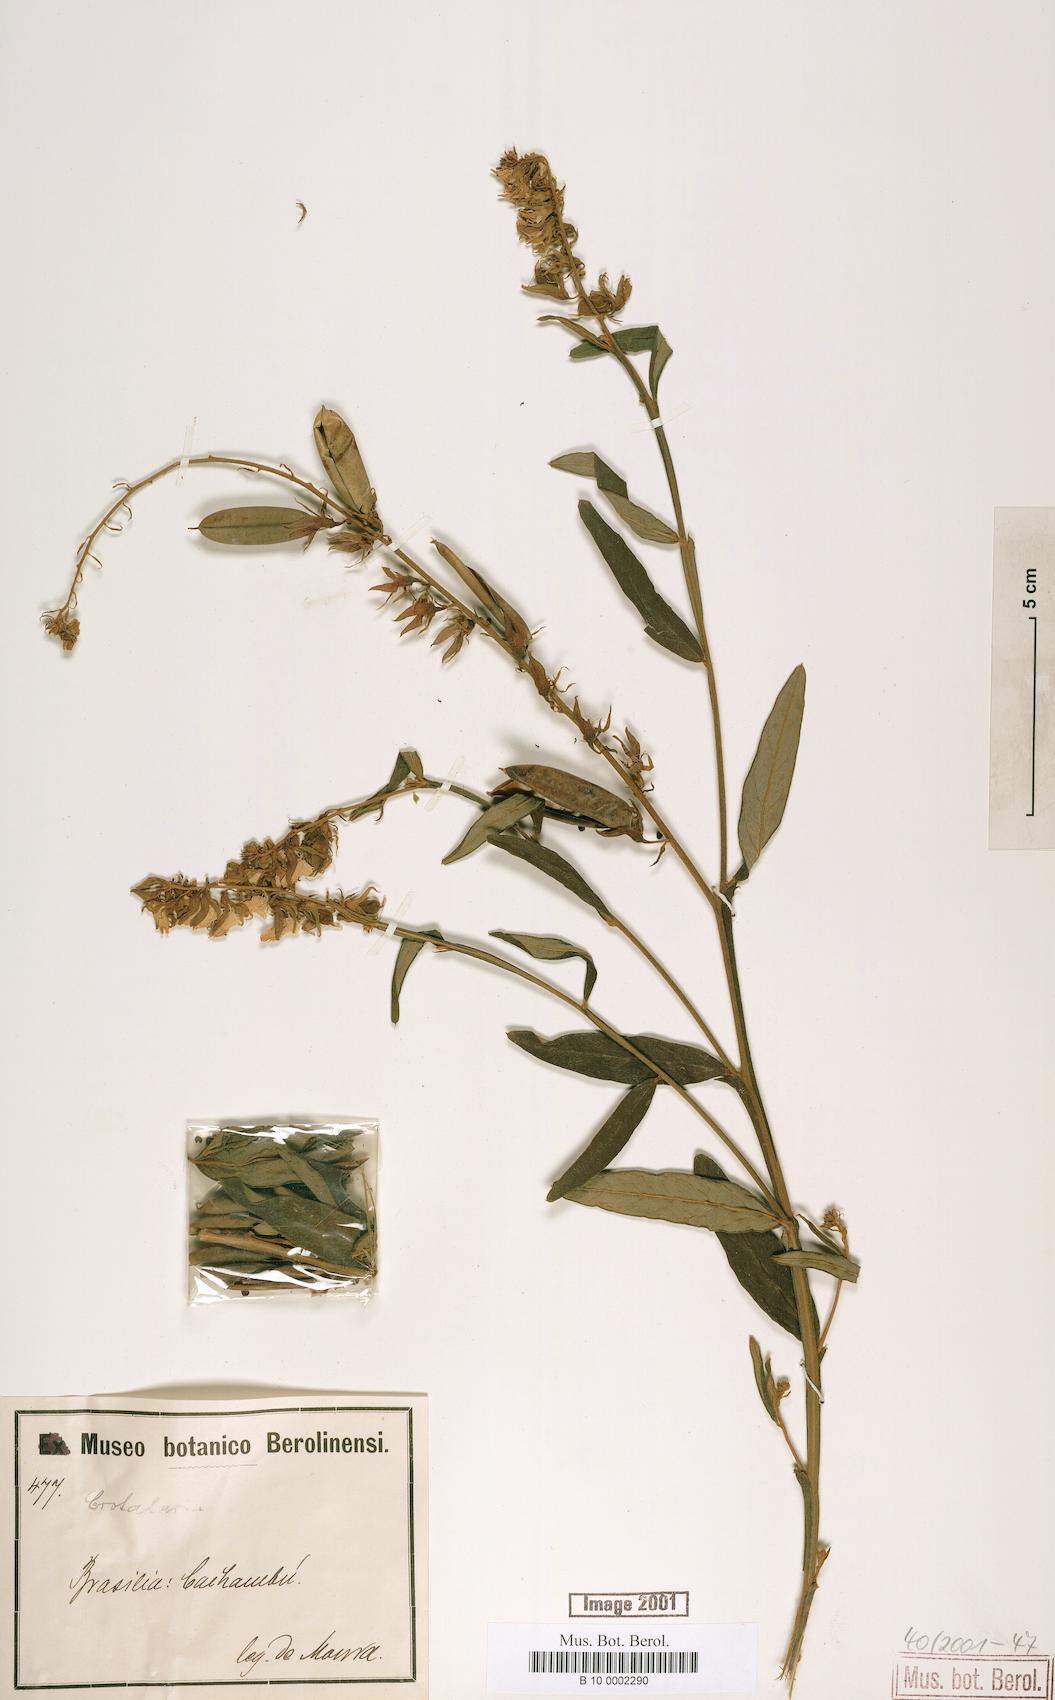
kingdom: Plantae
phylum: Tracheophyta
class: Magnoliopsida
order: Fabales
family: Fabaceae
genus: Crotalaria
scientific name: Crotalaria breviflora
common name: Short-flower crotalaria
